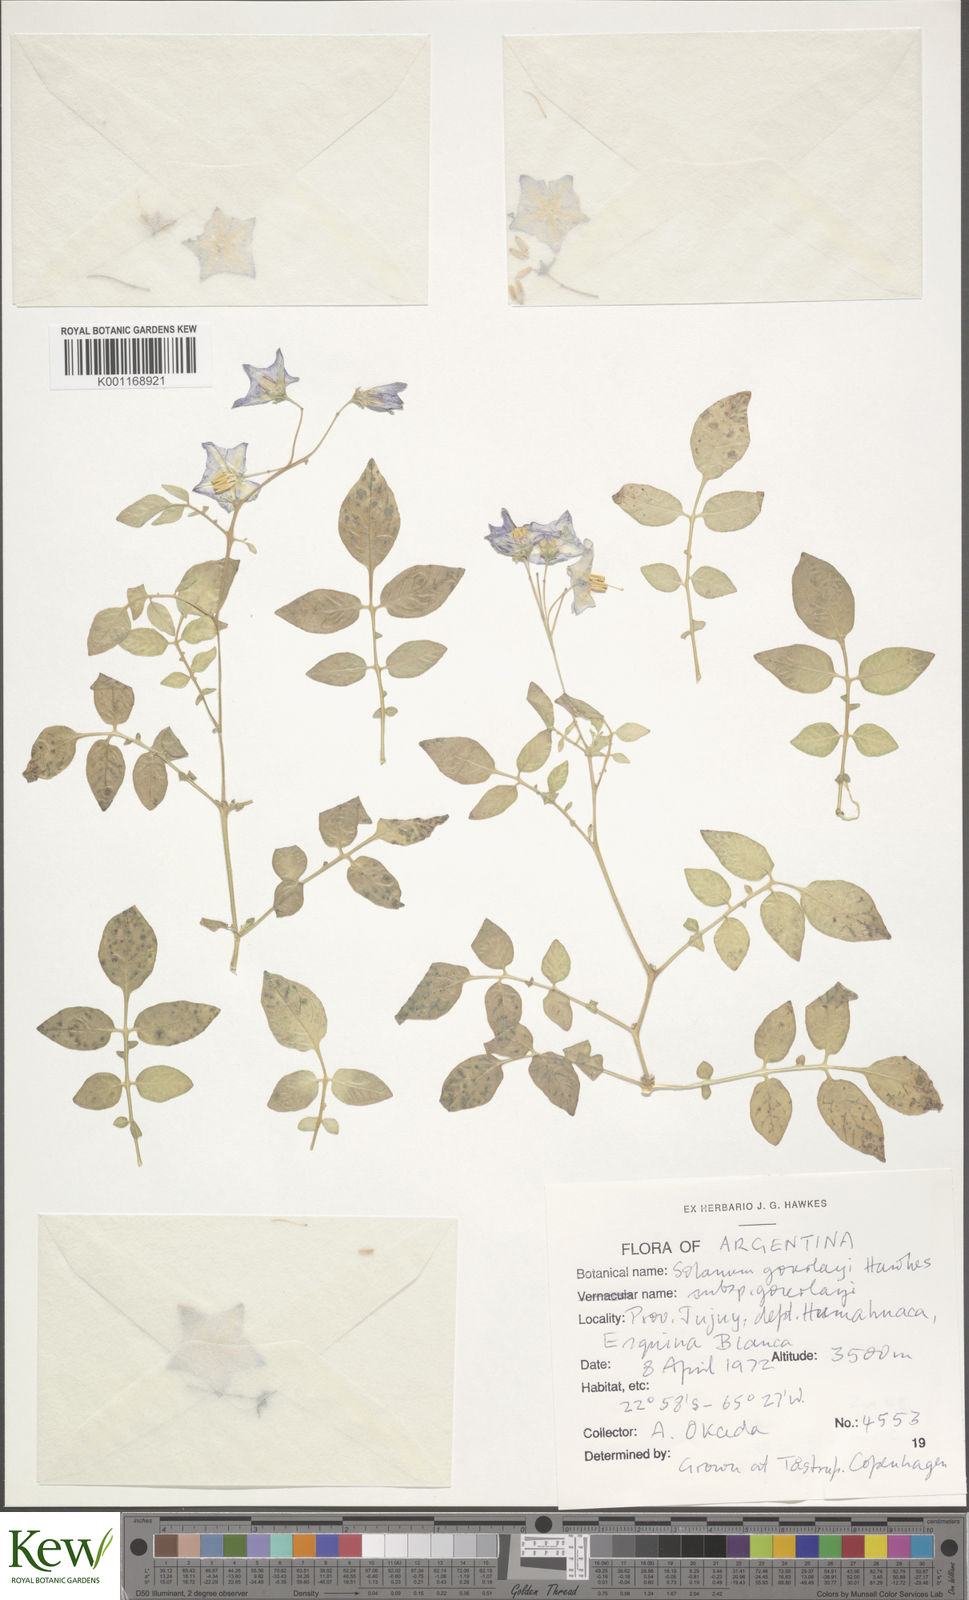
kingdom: Plantae
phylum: Tracheophyta
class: Magnoliopsida
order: Solanales
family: Solanaceae
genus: Solanum
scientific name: Solanum brevicaule
